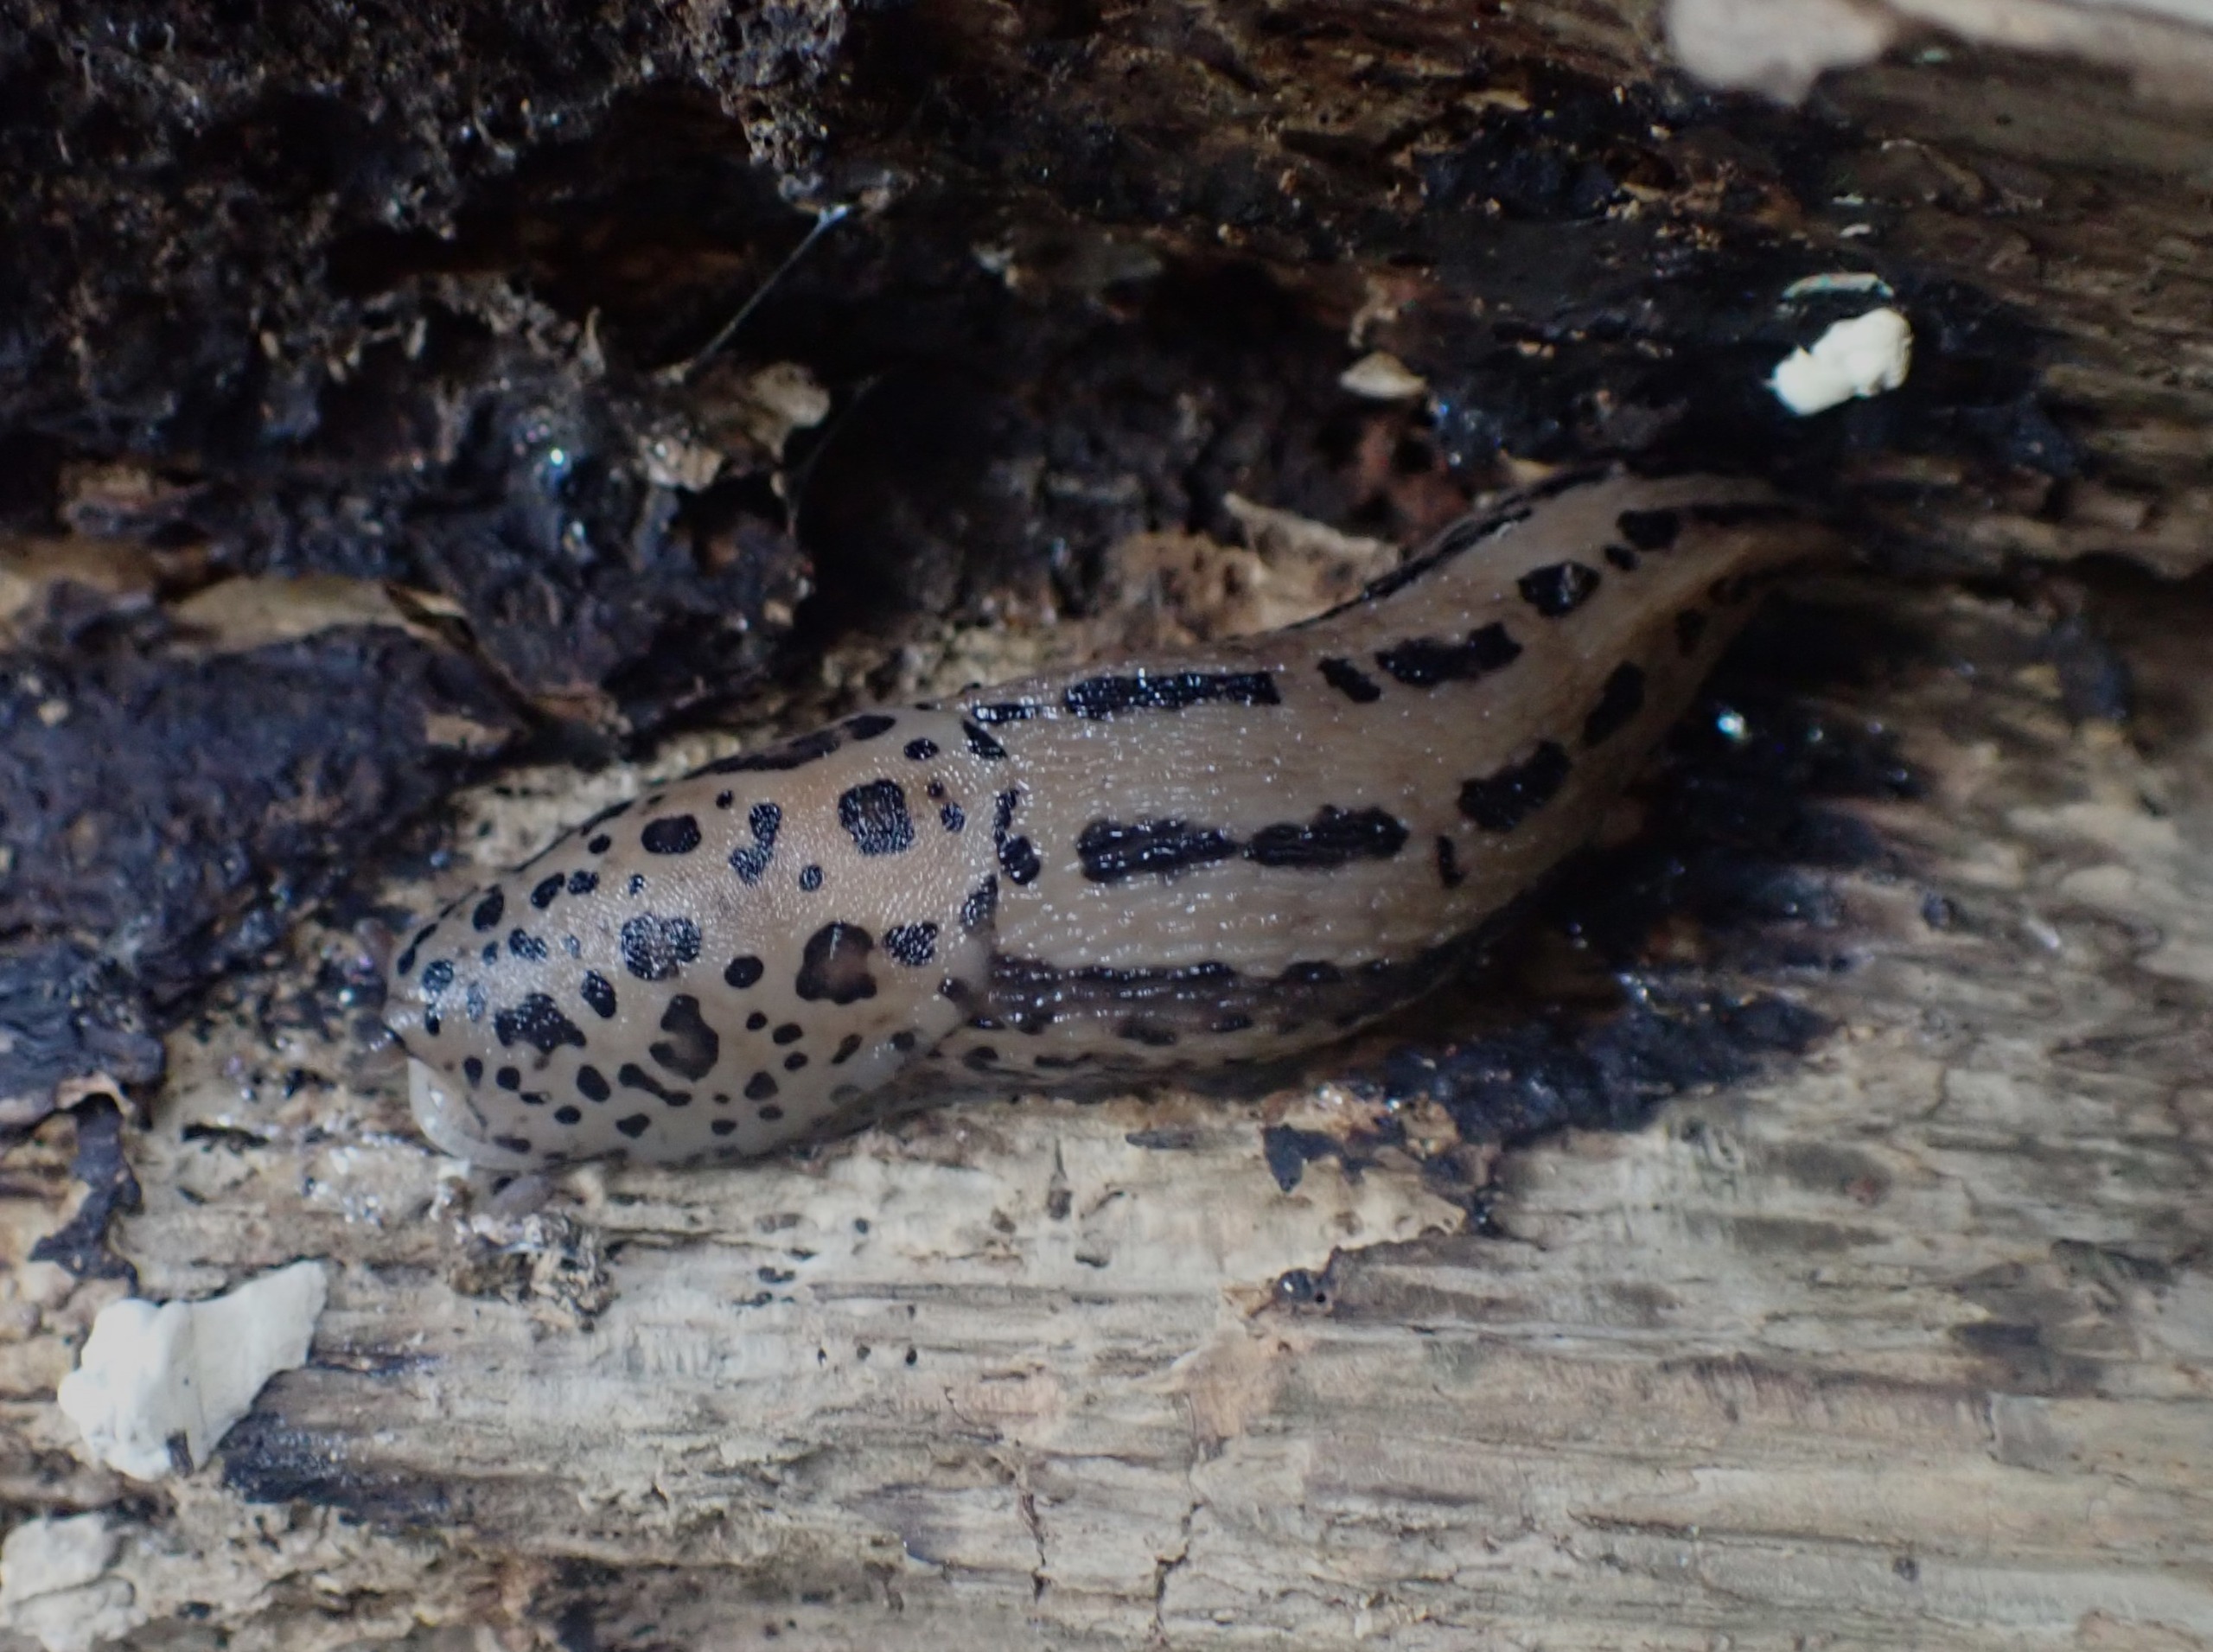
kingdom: Animalia
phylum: Mollusca
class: Gastropoda
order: Stylommatophora
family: Limacidae
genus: Limax
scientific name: Limax maximus
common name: Pantersnegl
